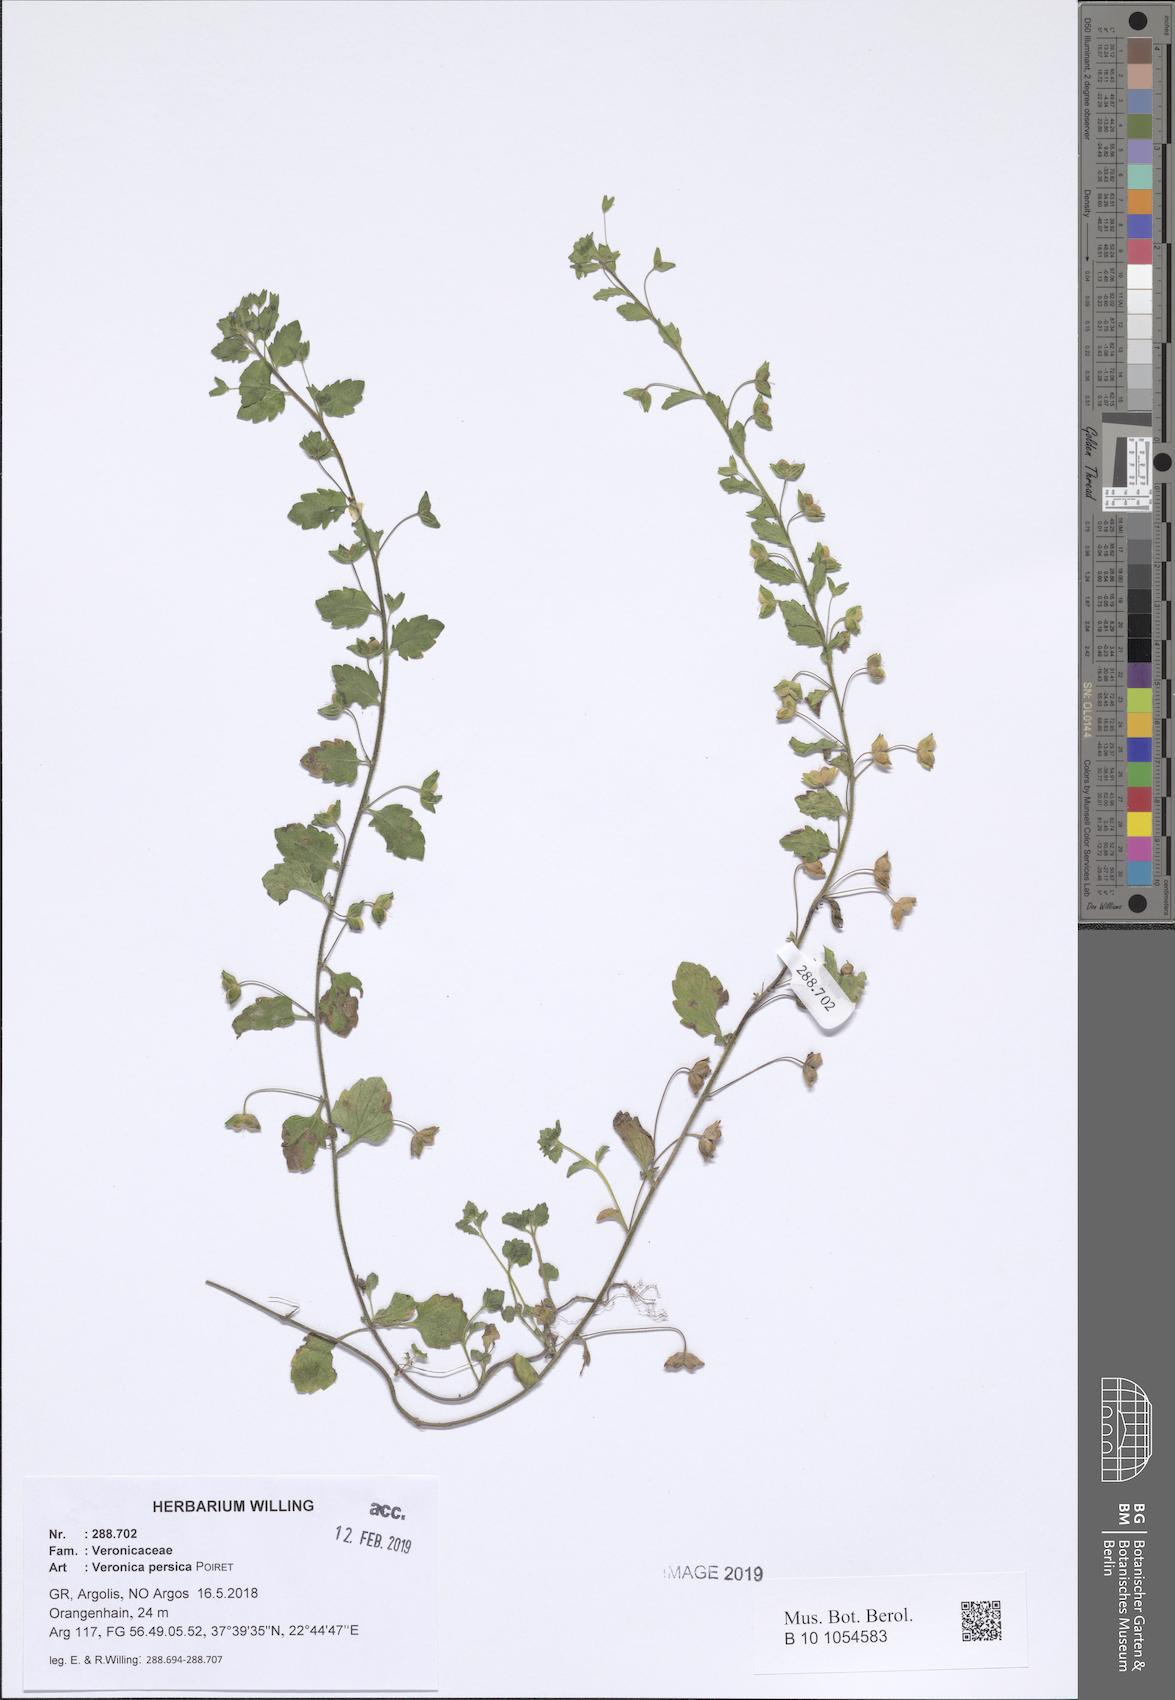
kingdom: Plantae
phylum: Tracheophyta
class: Magnoliopsida
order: Lamiales
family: Plantaginaceae
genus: Veronica
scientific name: Veronica persica
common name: Common field-speedwell
